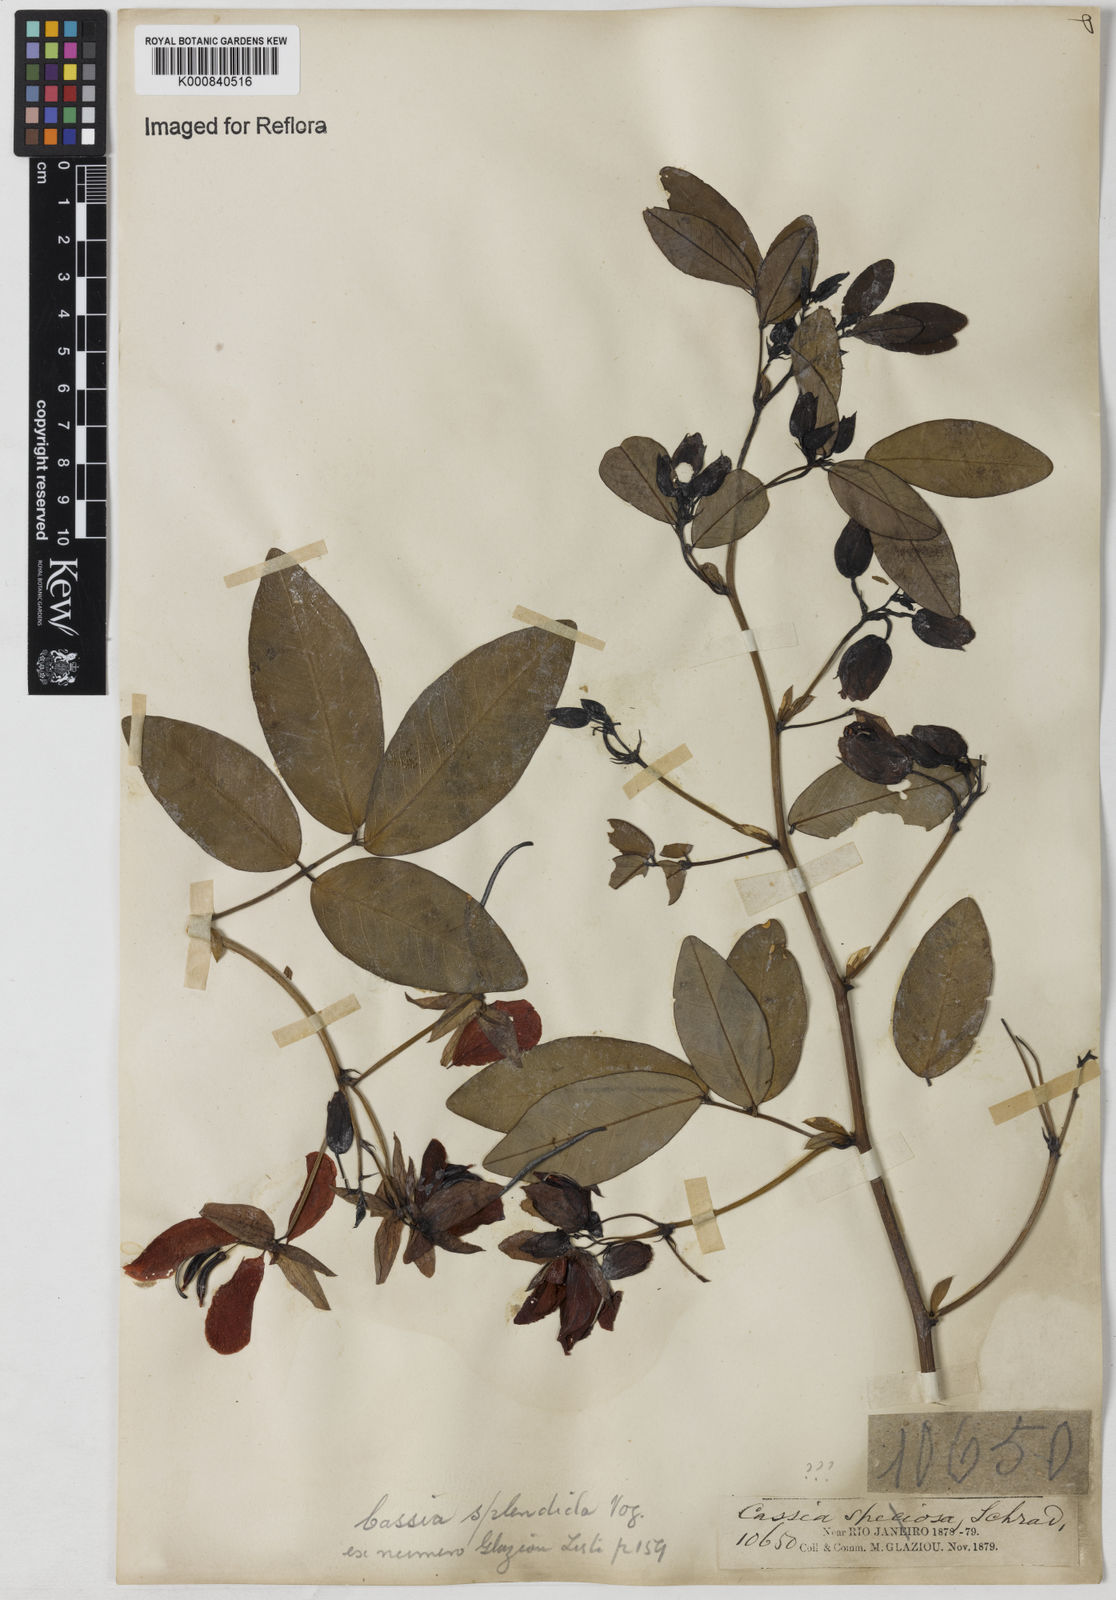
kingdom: Plantae
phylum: Tracheophyta
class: Magnoliopsida
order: Fabales
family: Fabaceae
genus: Senna
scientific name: Senna splendida
